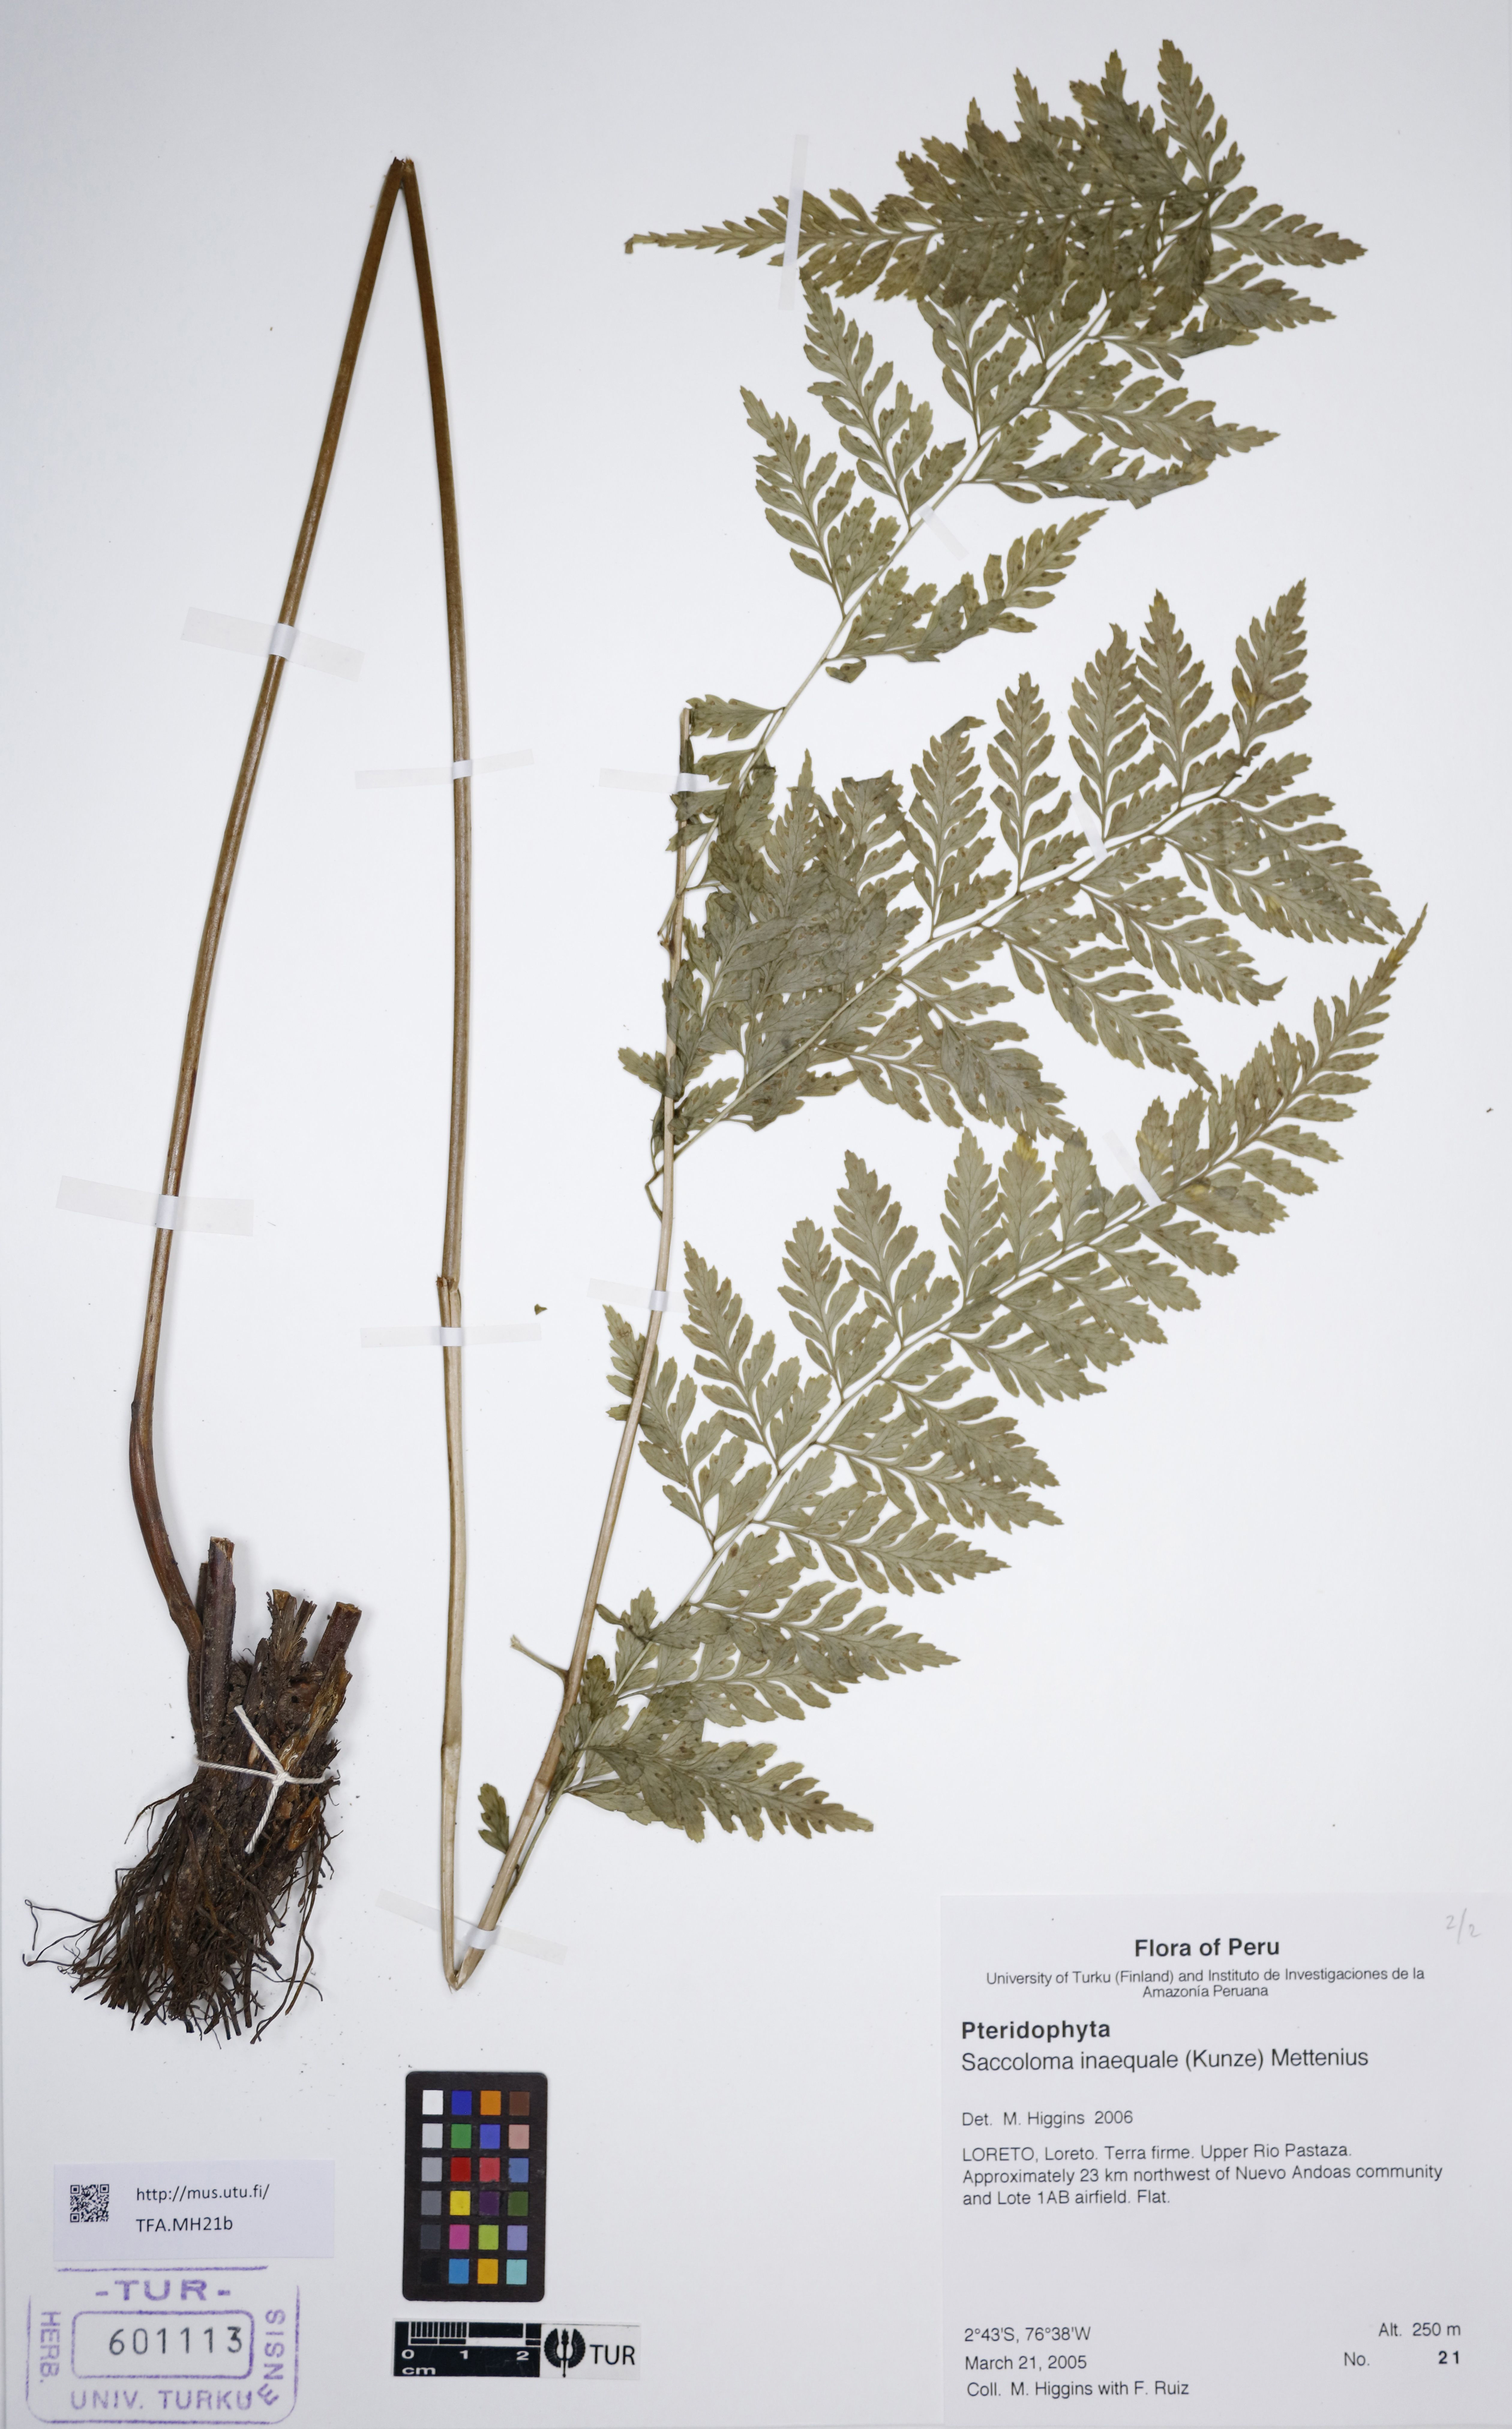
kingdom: Plantae
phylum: Tracheophyta
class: Polypodiopsida
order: Polypodiales
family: Saccolomataceae
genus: Saccoloma
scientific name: Saccoloma inaequale
